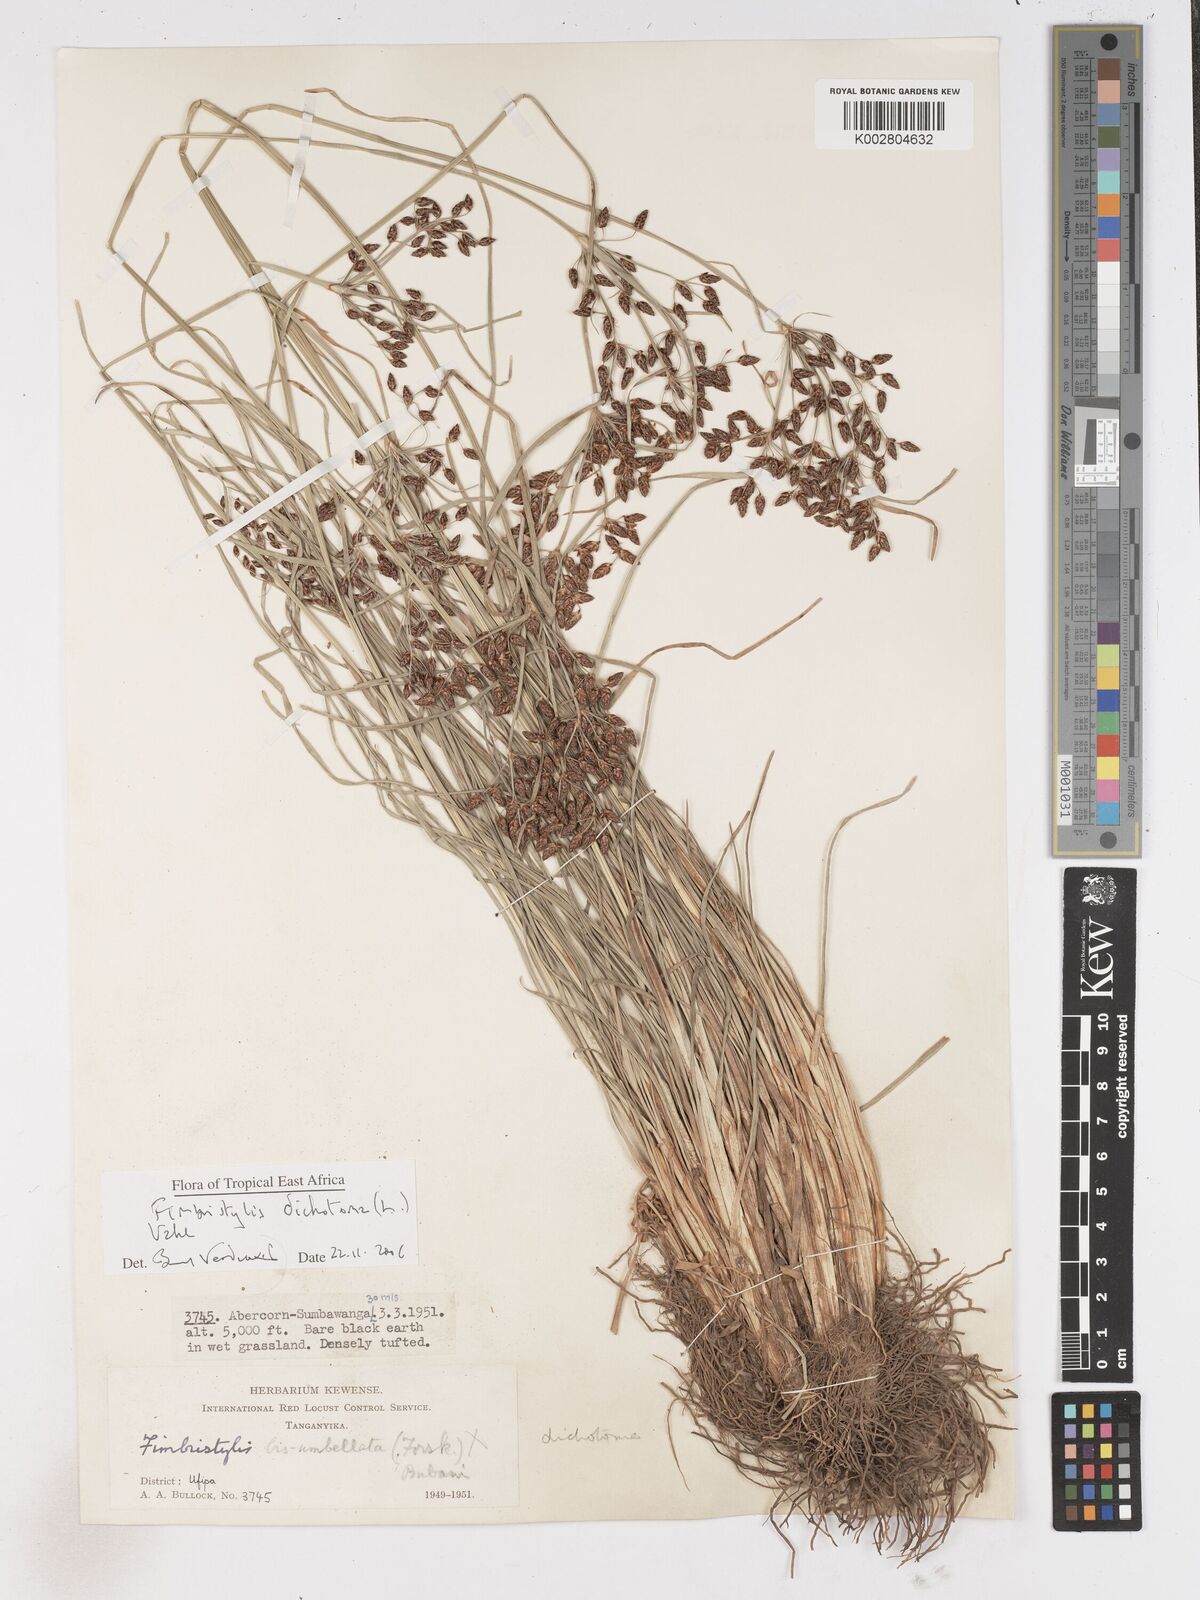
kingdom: Plantae
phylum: Tracheophyta
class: Liliopsida
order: Poales
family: Cyperaceae
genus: Fimbristylis
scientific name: Fimbristylis dichotoma
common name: Forked fimbry
